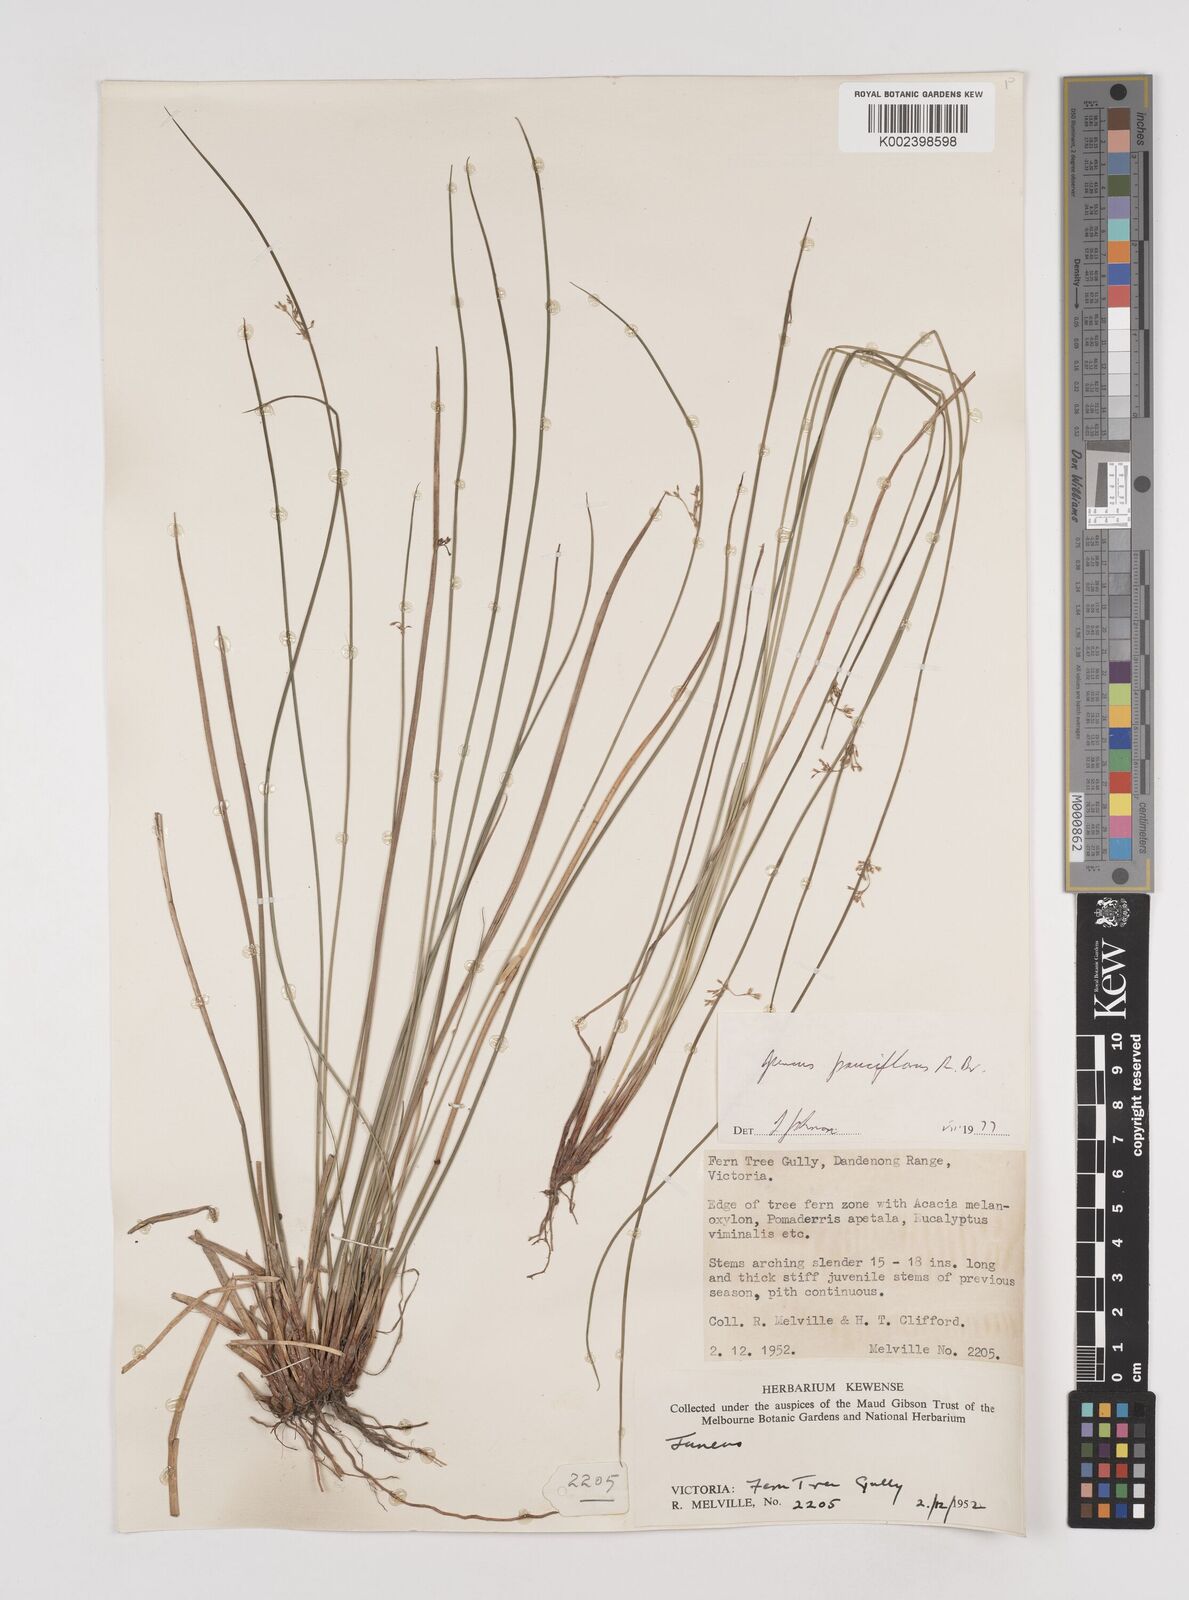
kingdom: Plantae
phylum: Tracheophyta
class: Liliopsida
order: Poales
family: Juncaceae
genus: Juncus
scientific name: Juncus pauciflorus
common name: Loose-flowered rush
